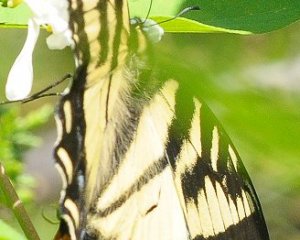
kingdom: Animalia
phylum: Arthropoda
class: Insecta
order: Lepidoptera
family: Papilionidae
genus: Pterourus
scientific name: Pterourus canadensis
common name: Canadian Tiger Swallowtail
